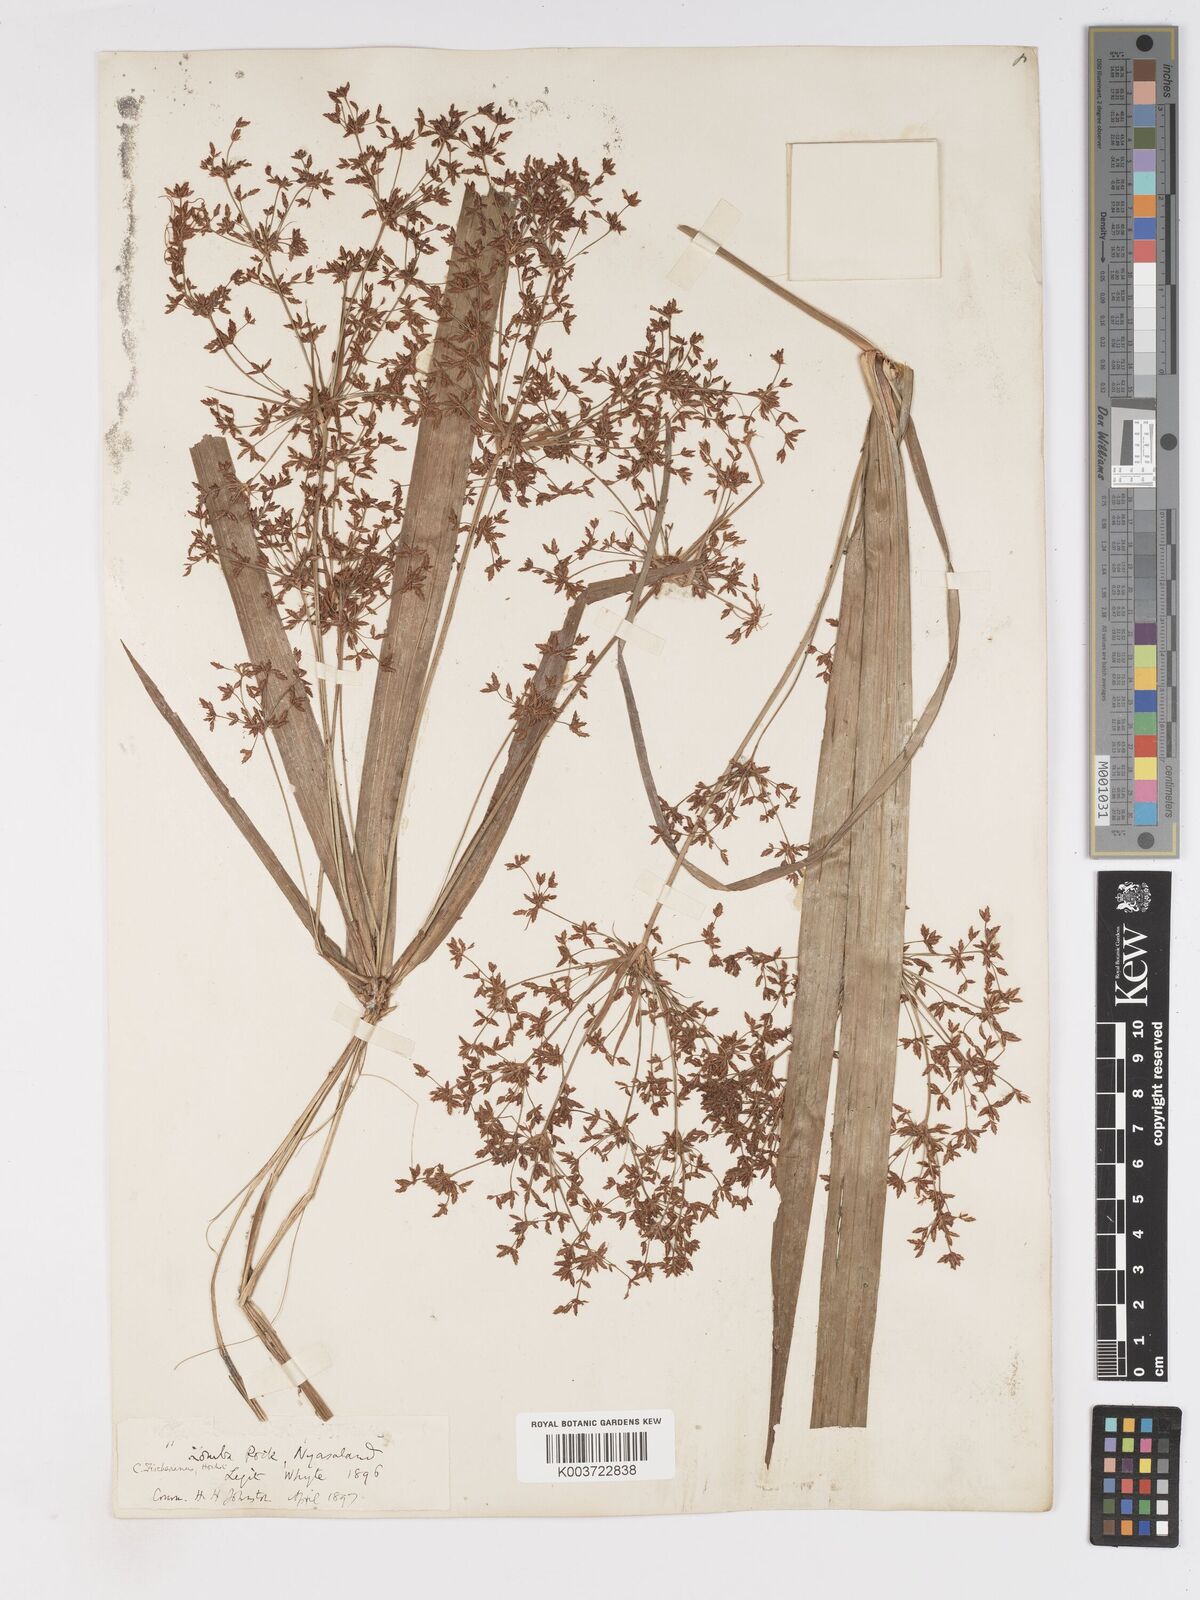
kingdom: Plantae
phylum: Tracheophyta
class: Liliopsida
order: Poales
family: Cyperaceae
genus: Cyperus
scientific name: Cyperus glaucophyllus
